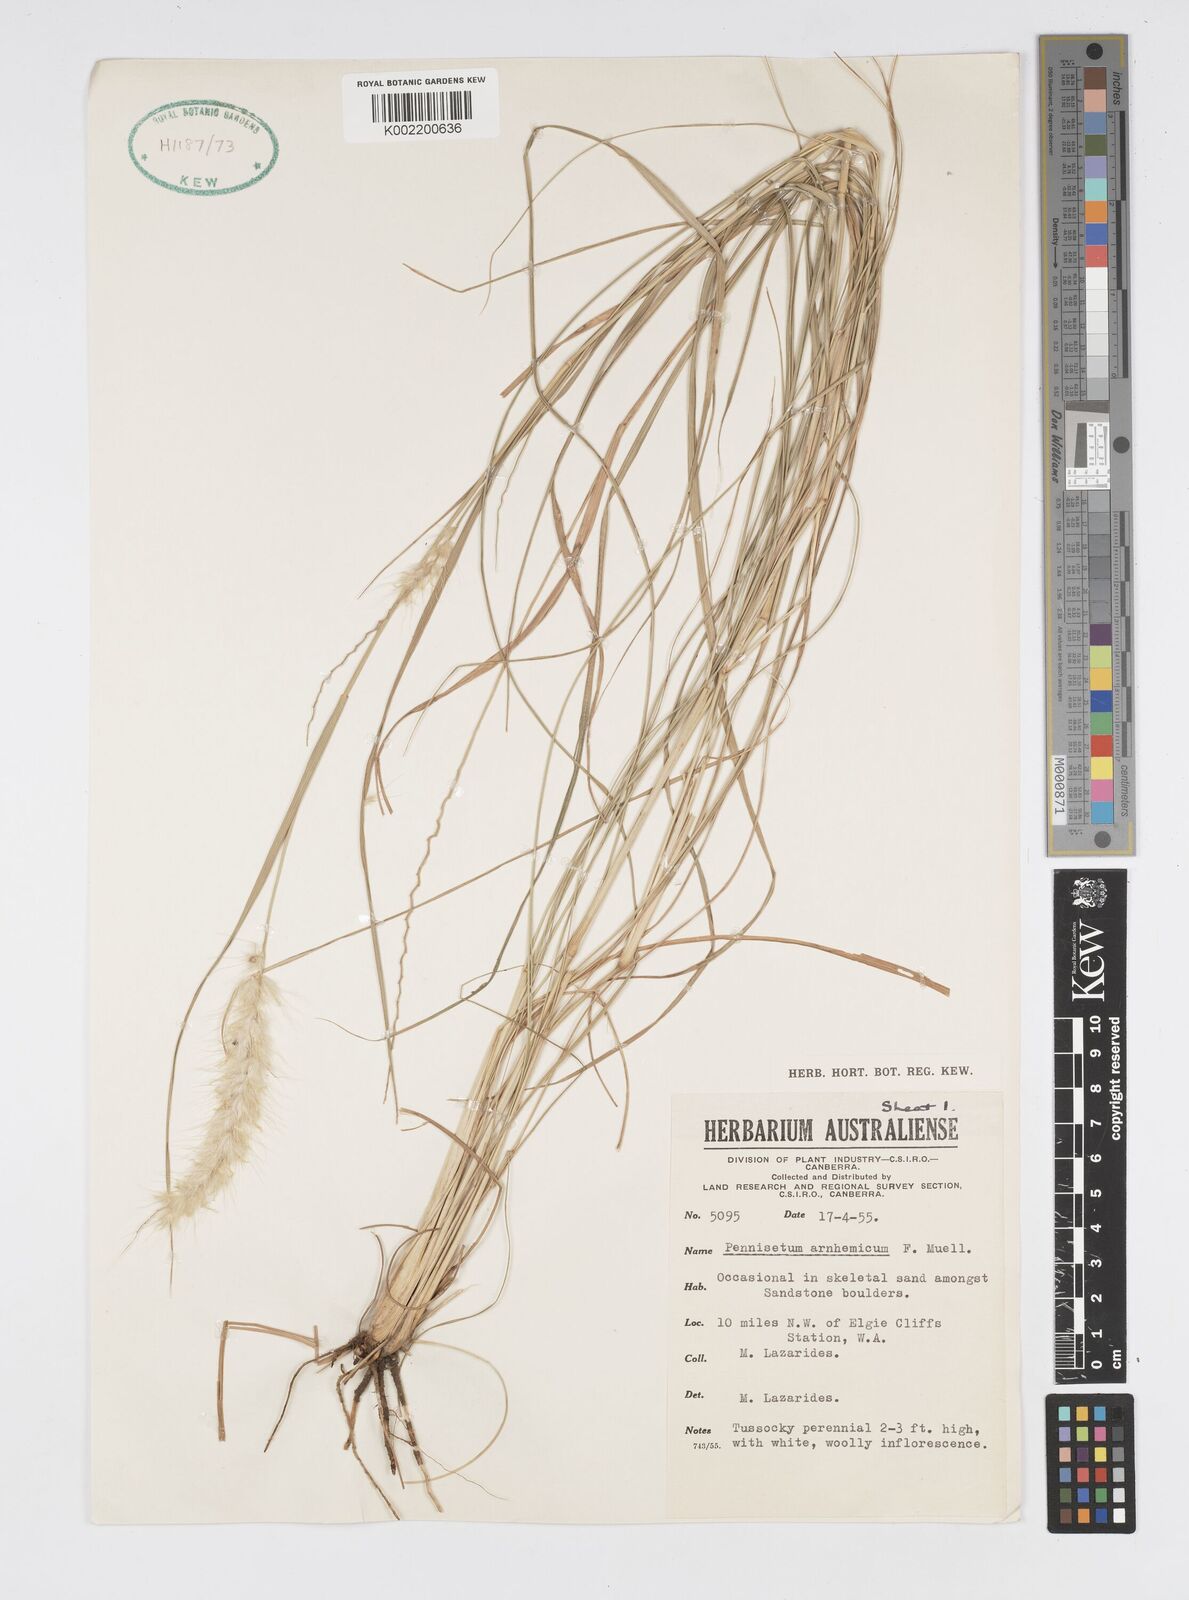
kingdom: Plantae
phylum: Tracheophyta
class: Liliopsida
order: Poales
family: Poaceae
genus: Cenchrus
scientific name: Cenchrus arnhemicus
